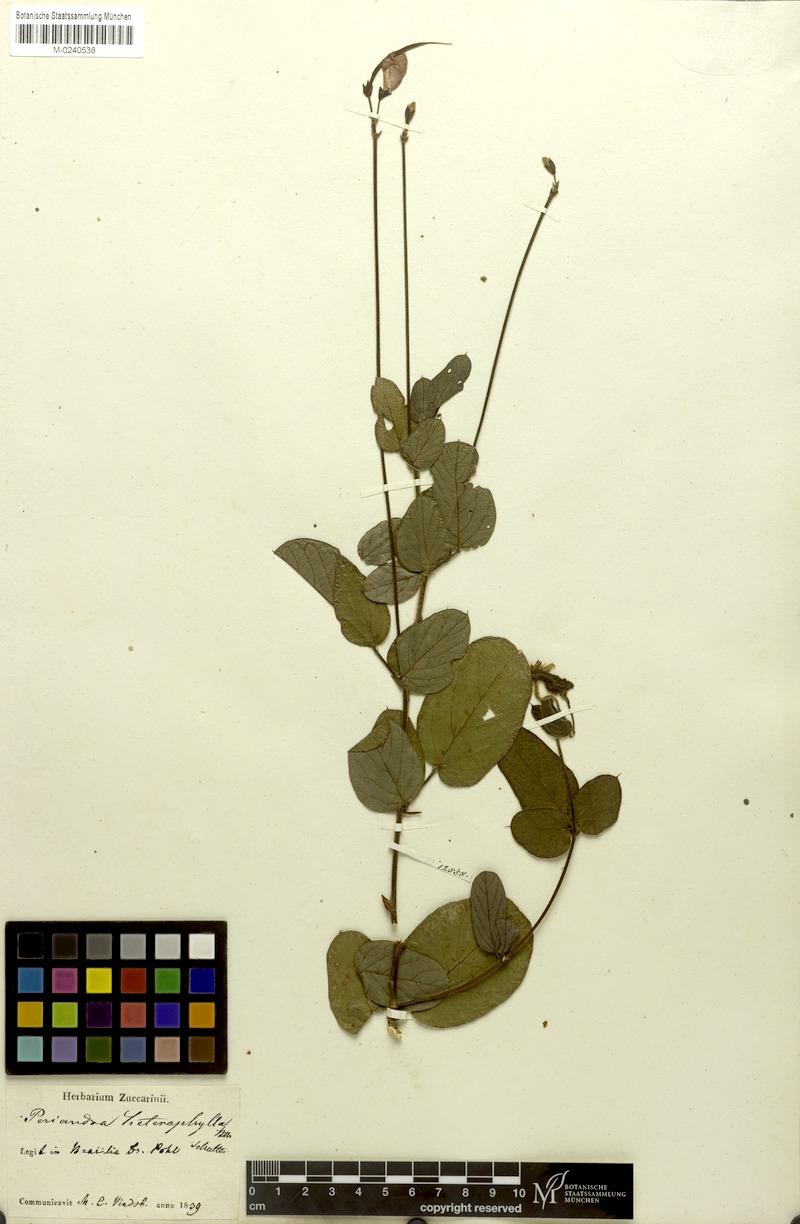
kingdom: Plantae
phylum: Tracheophyta
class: Magnoliopsida
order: Fabales
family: Fabaceae
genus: Periandra
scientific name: Periandra heterophylla
